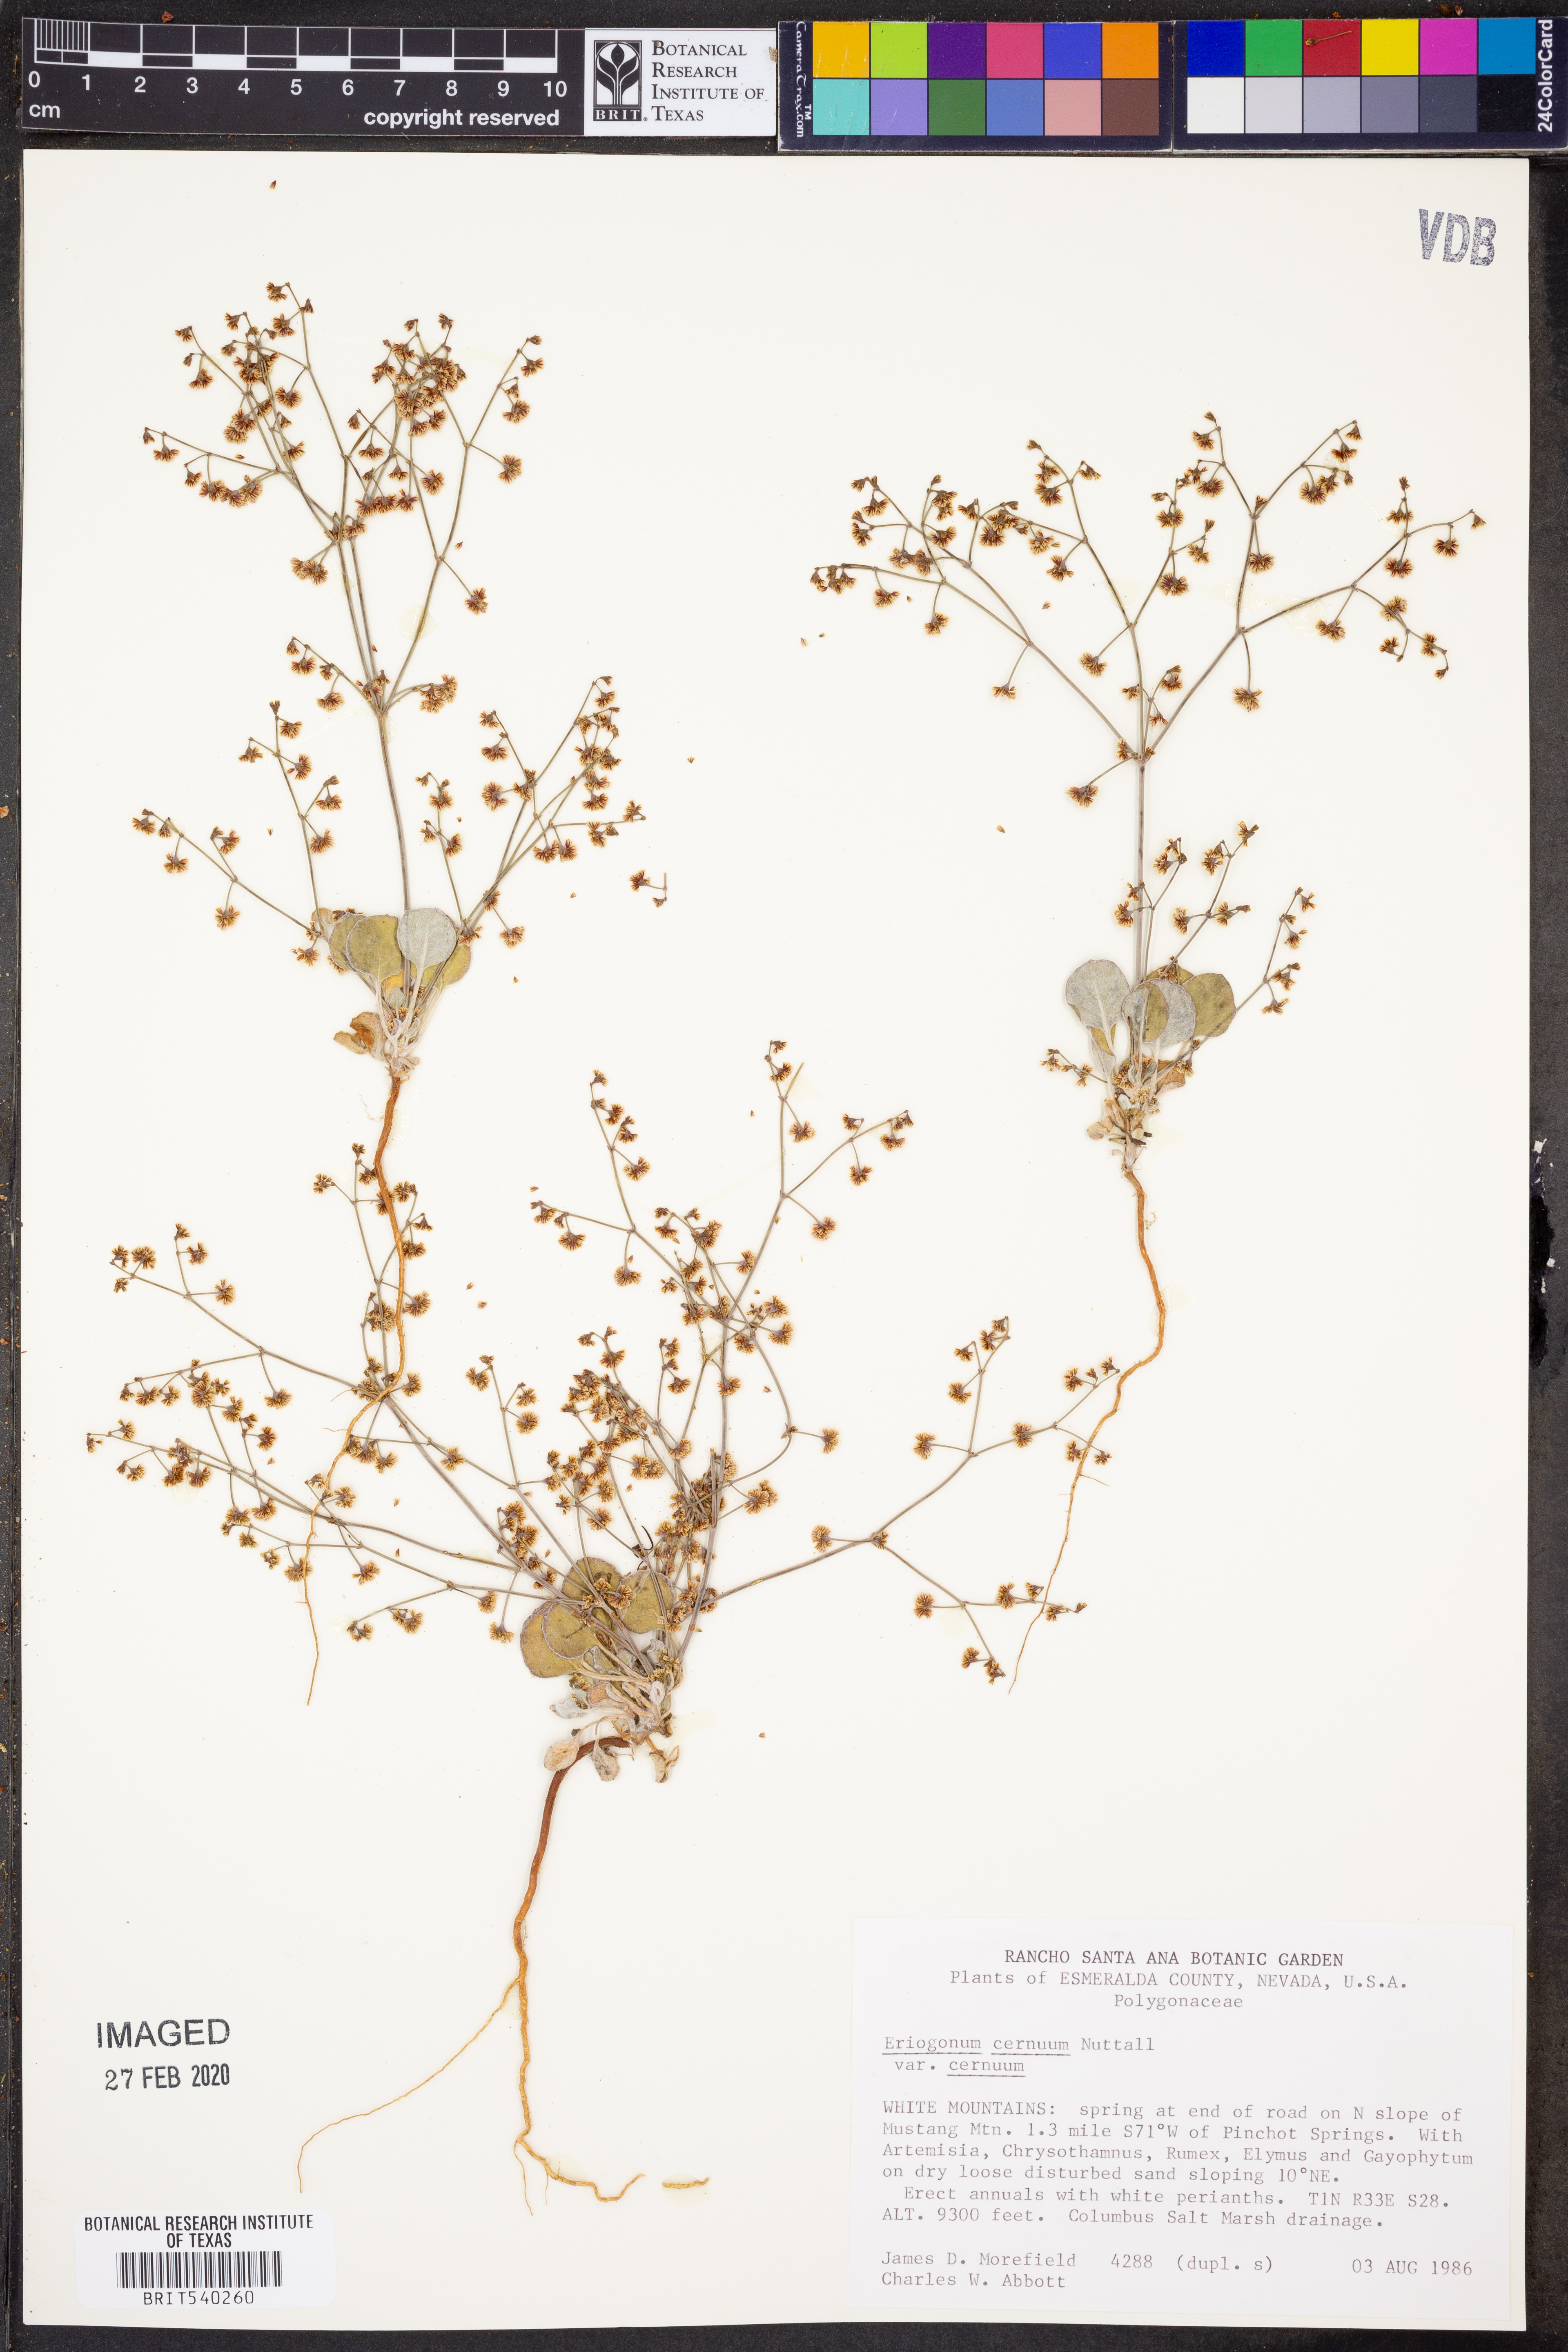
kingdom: Plantae
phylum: Tracheophyta
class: Magnoliopsida
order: Caryophyllales
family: Polygonaceae
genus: Eriogonum
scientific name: Eriogonum cernuum
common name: Nodding wild buckwheat
